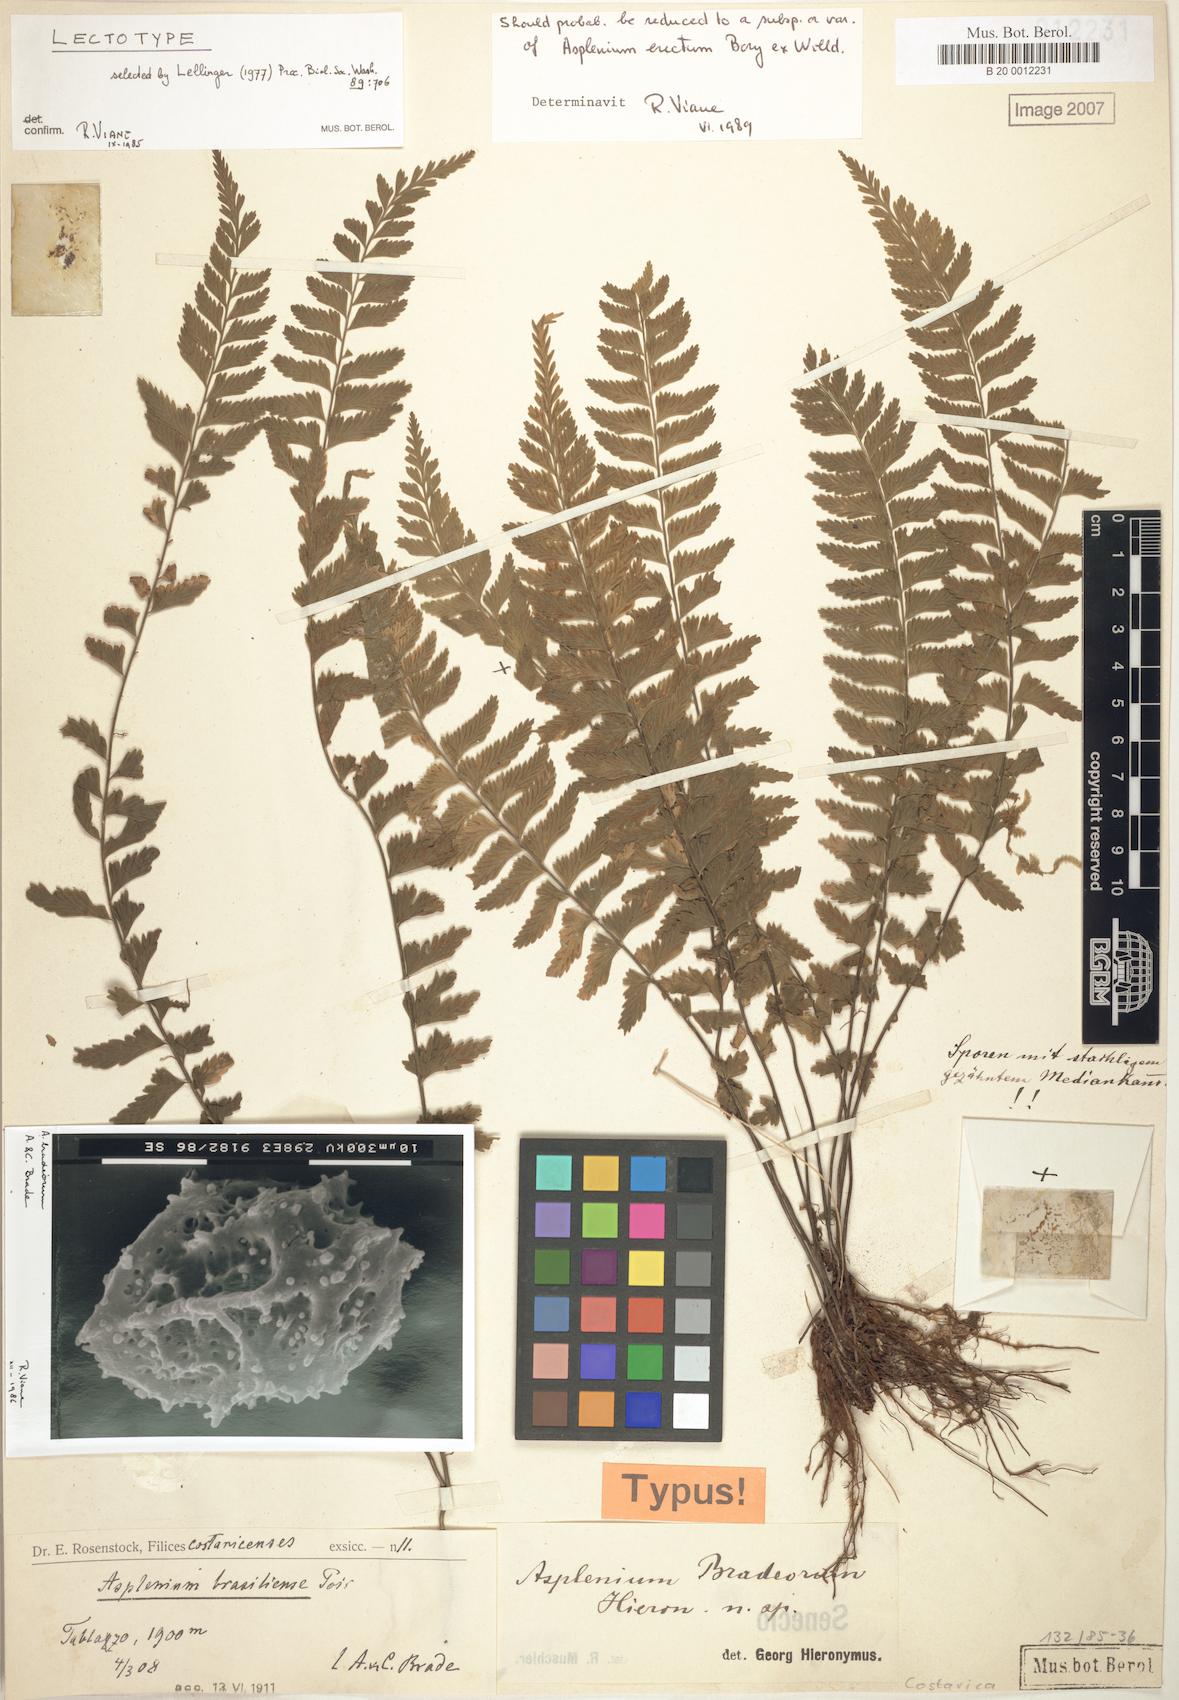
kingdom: Plantae
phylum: Tracheophyta
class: Polypodiopsida
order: Polypodiales
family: Aspleniaceae
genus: Asplenium
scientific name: Asplenium miradorense
